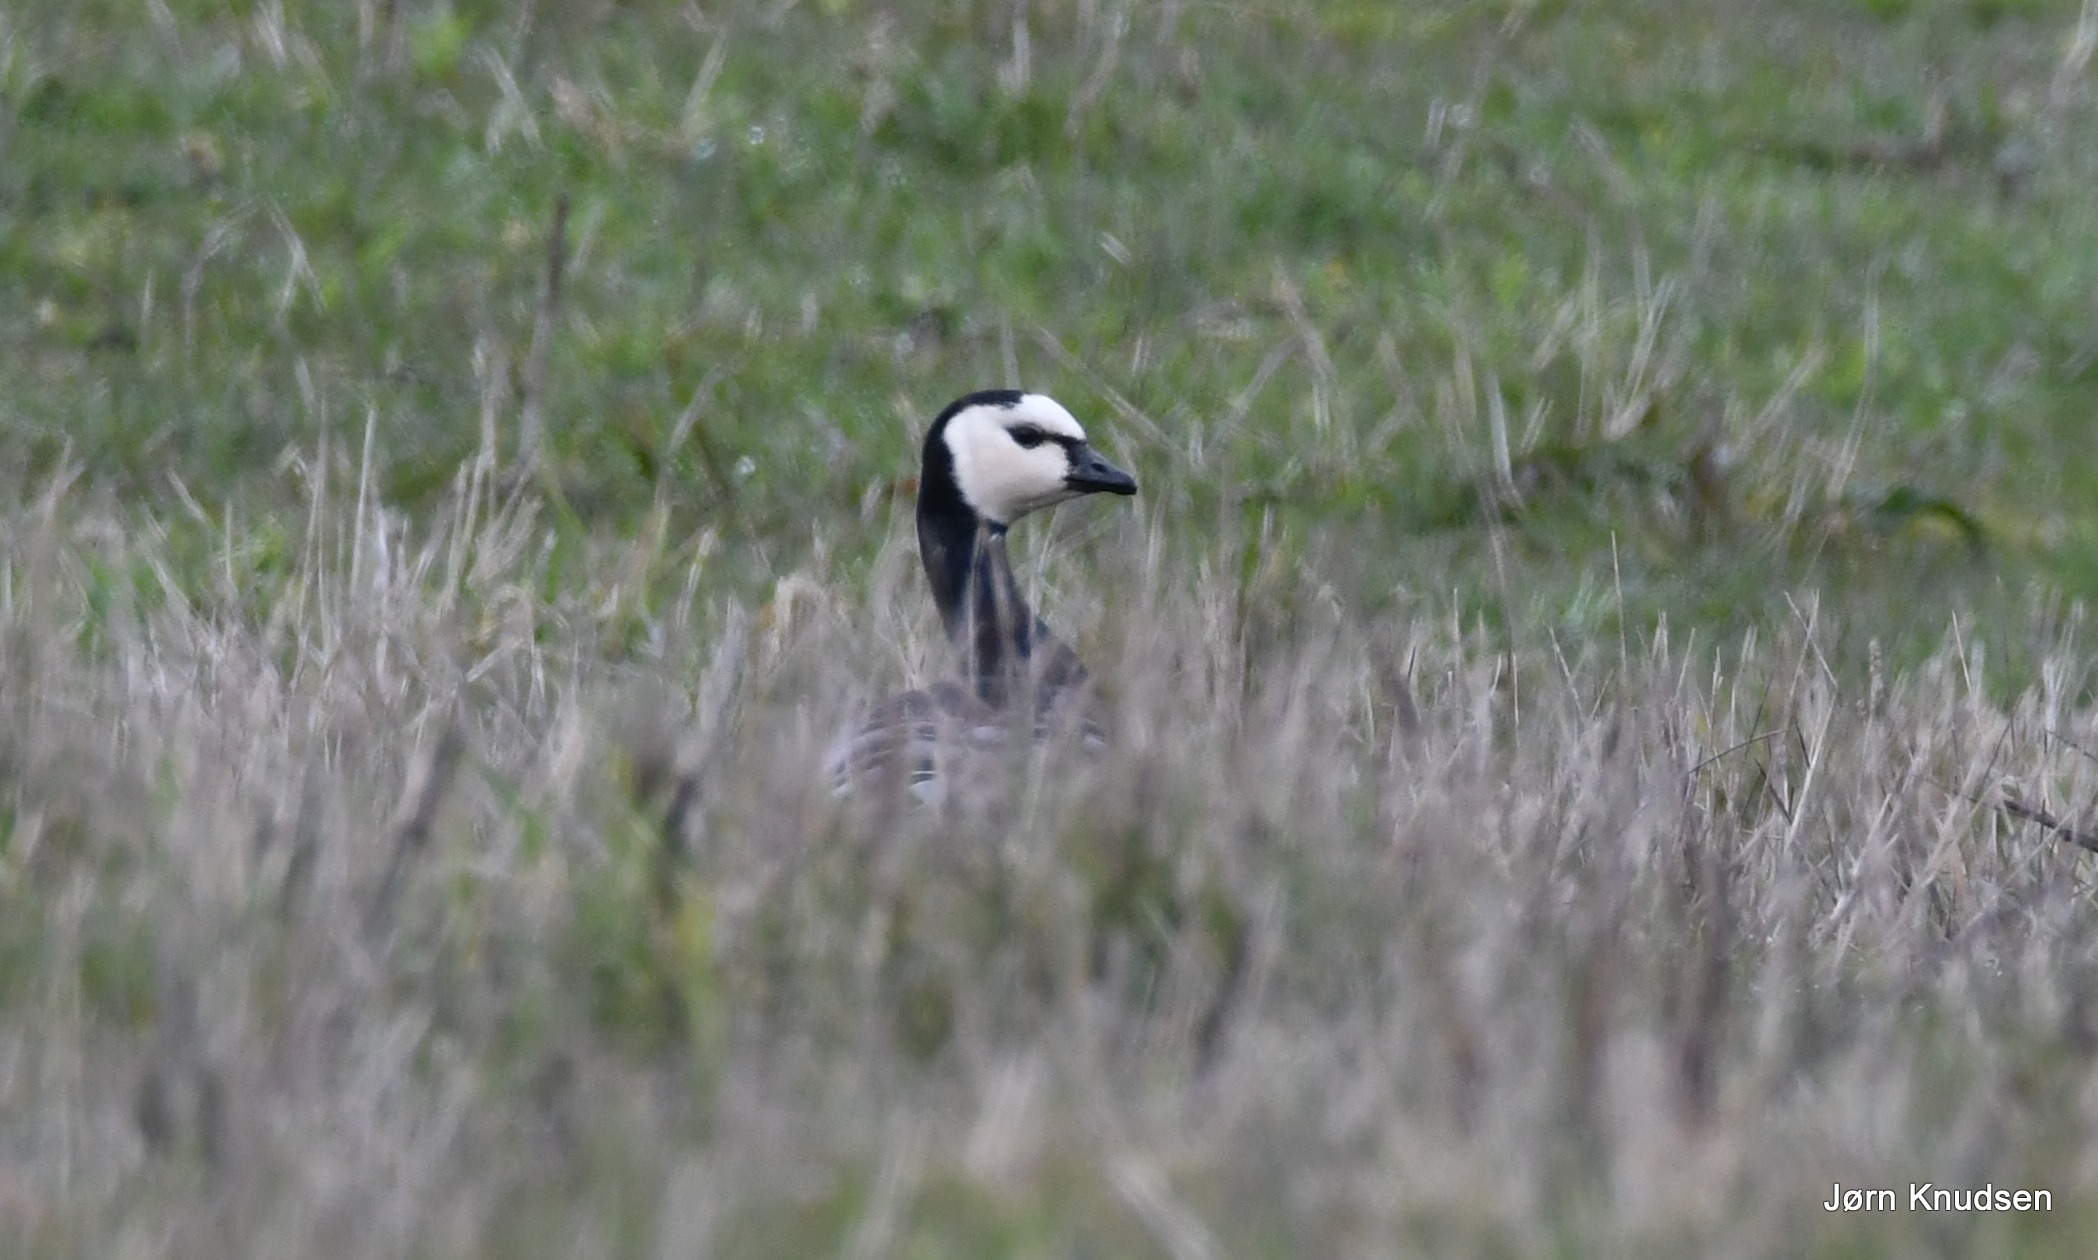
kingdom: Animalia
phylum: Chordata
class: Aves
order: Anseriformes
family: Anatidae
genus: Branta
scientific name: Branta leucopsis
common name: Bramgås
